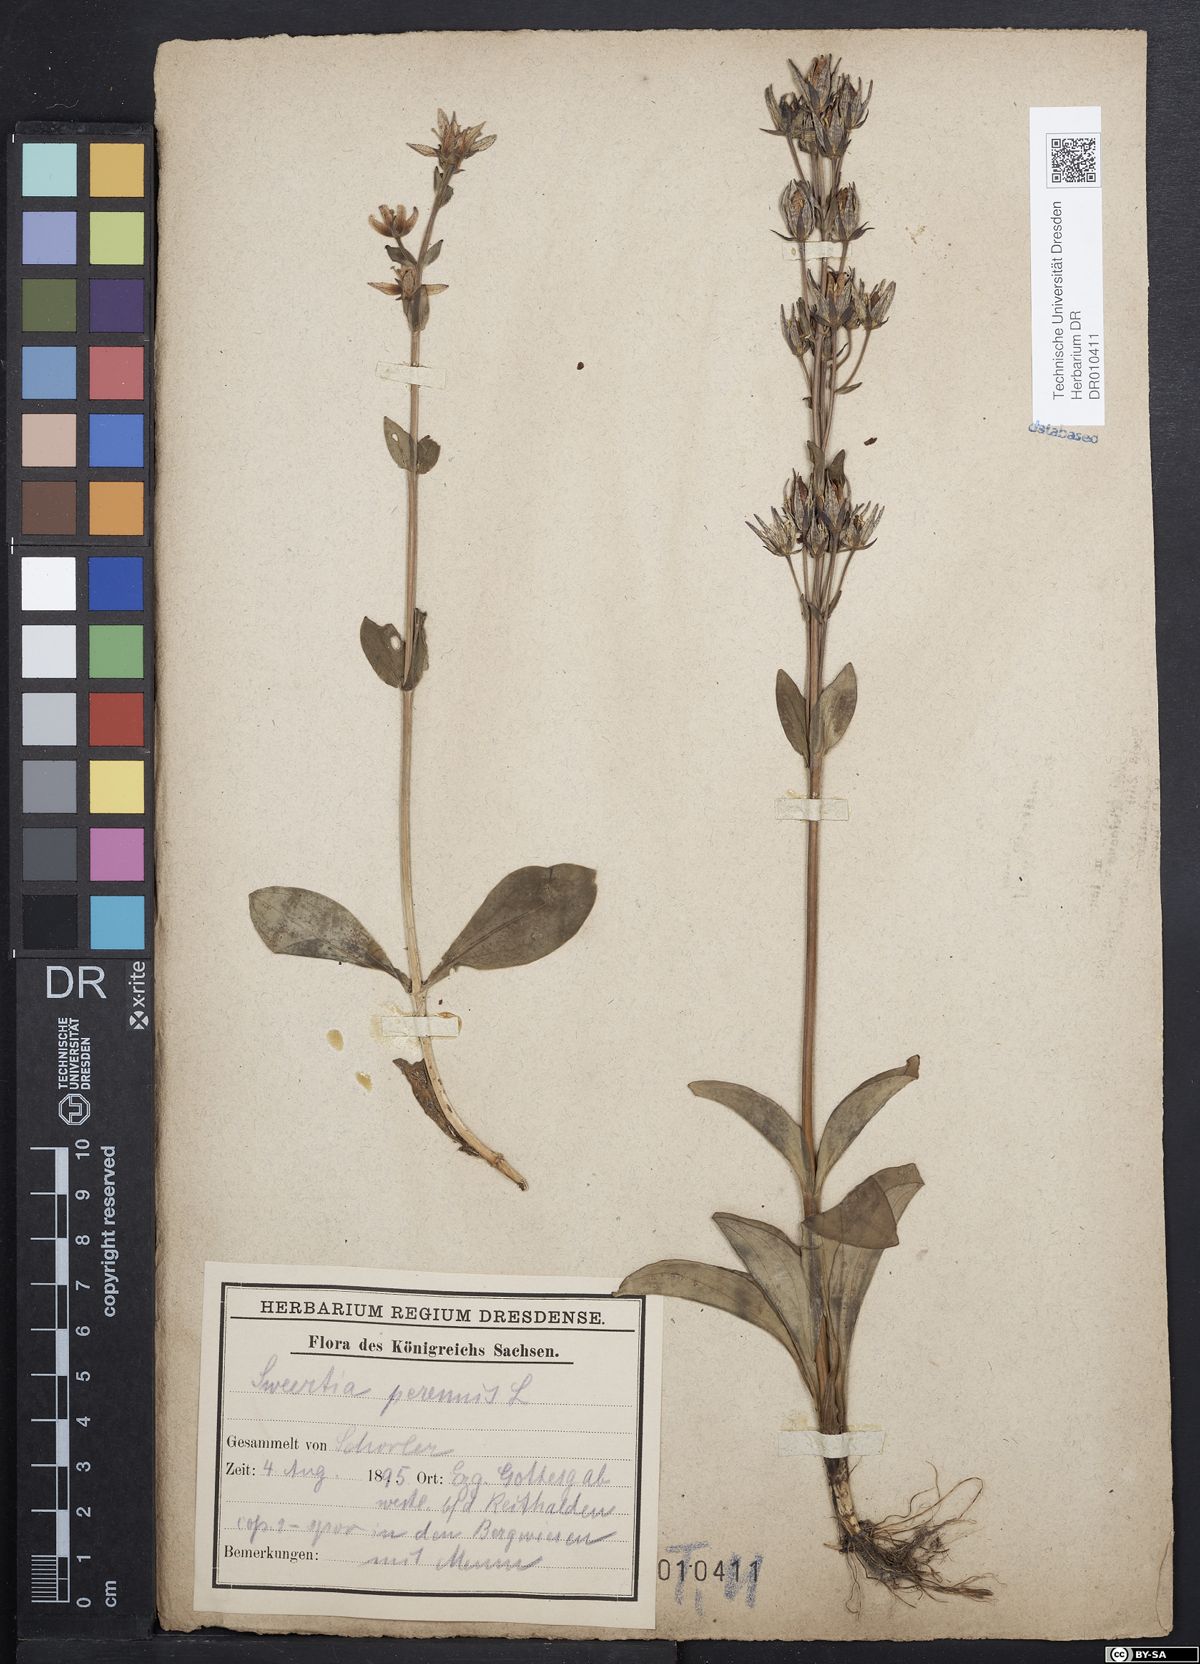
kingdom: Plantae
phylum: Tracheophyta
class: Magnoliopsida
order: Gentianales
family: Gentianaceae
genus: Swertia
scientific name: Swertia perennis
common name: Alpine bog swertia
